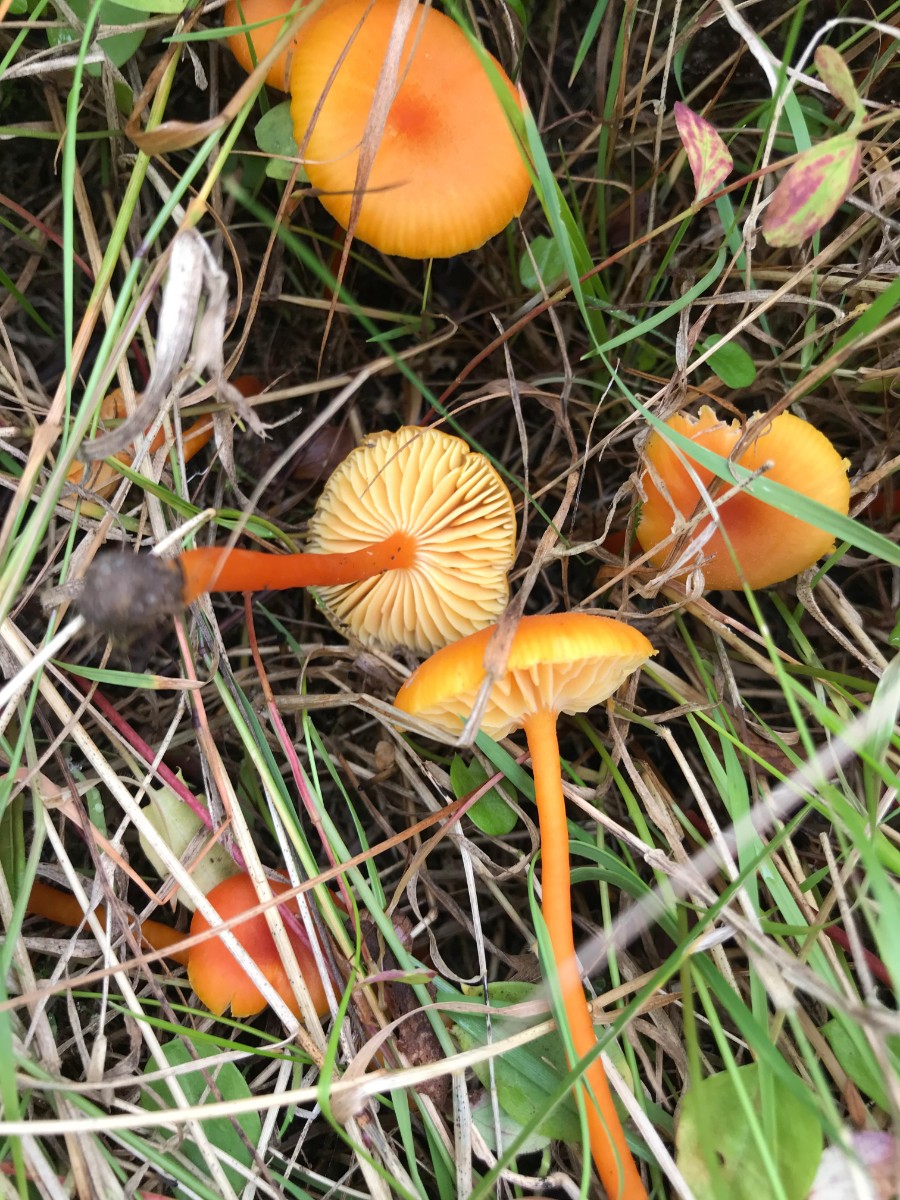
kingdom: Fungi
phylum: Basidiomycota
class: Agaricomycetes
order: Agaricales
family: Hygrophoraceae
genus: Hygrocybe
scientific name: Hygrocybe miniata
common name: mønje-vokshat
